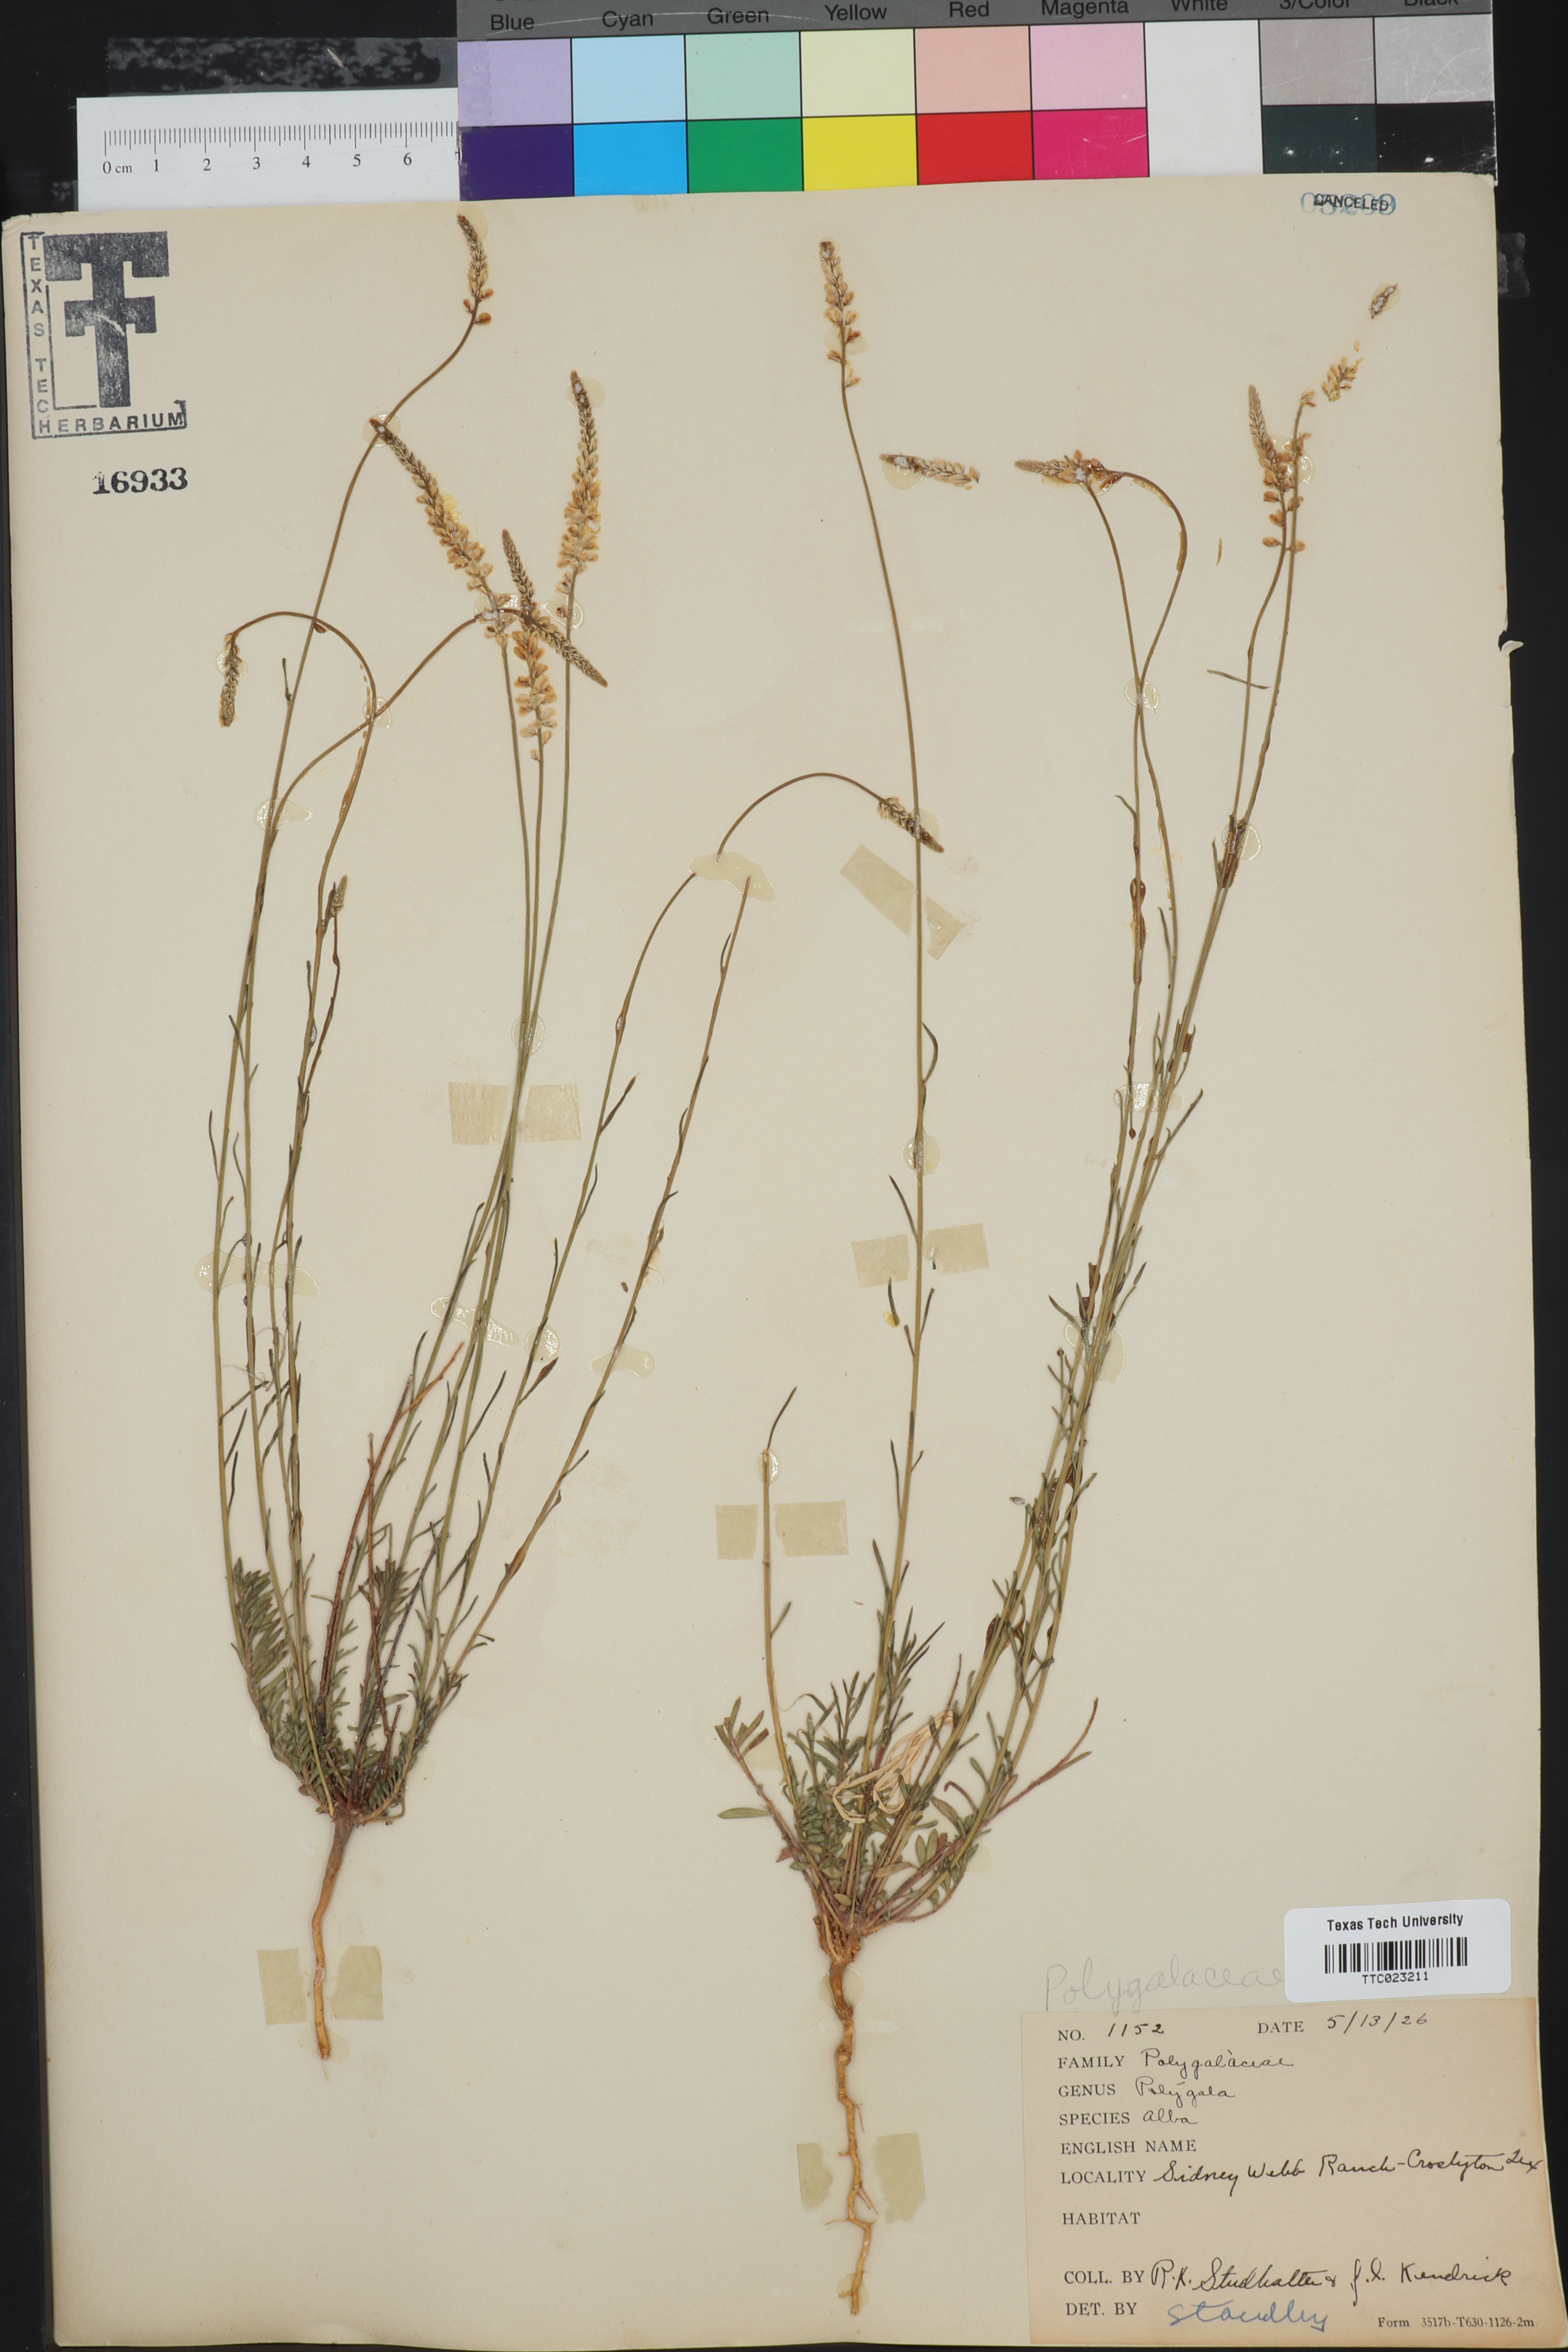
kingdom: Plantae
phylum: Tracheophyta
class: Magnoliopsida
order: Fabales
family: Polygalaceae
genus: Polygala
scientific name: Polygala alba
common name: White milkwort
